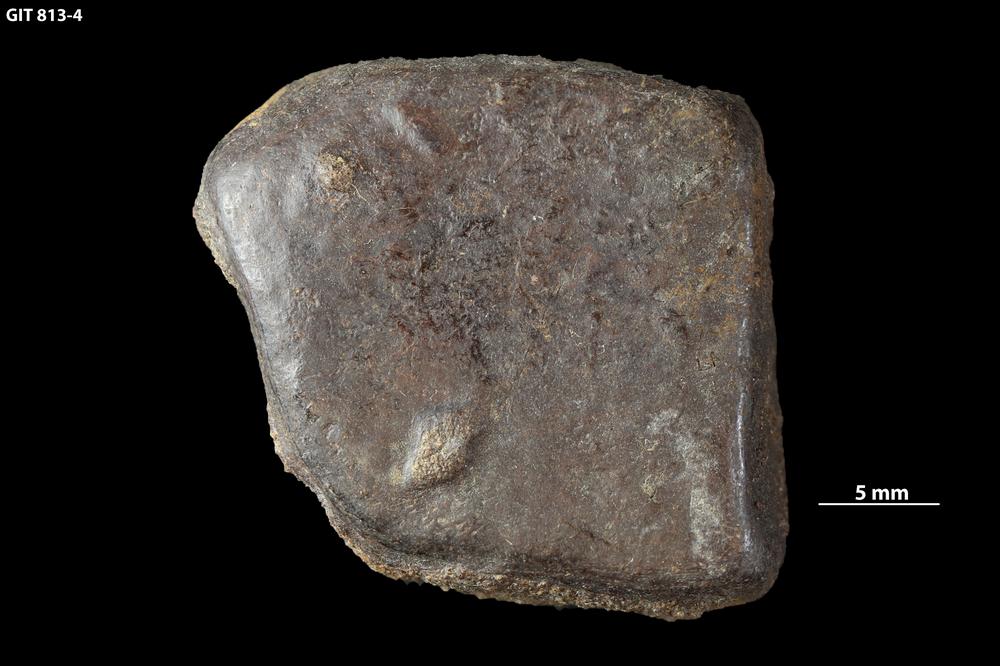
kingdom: Animalia
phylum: Chordata
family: Homostiidae
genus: Homostius
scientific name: Homostius
